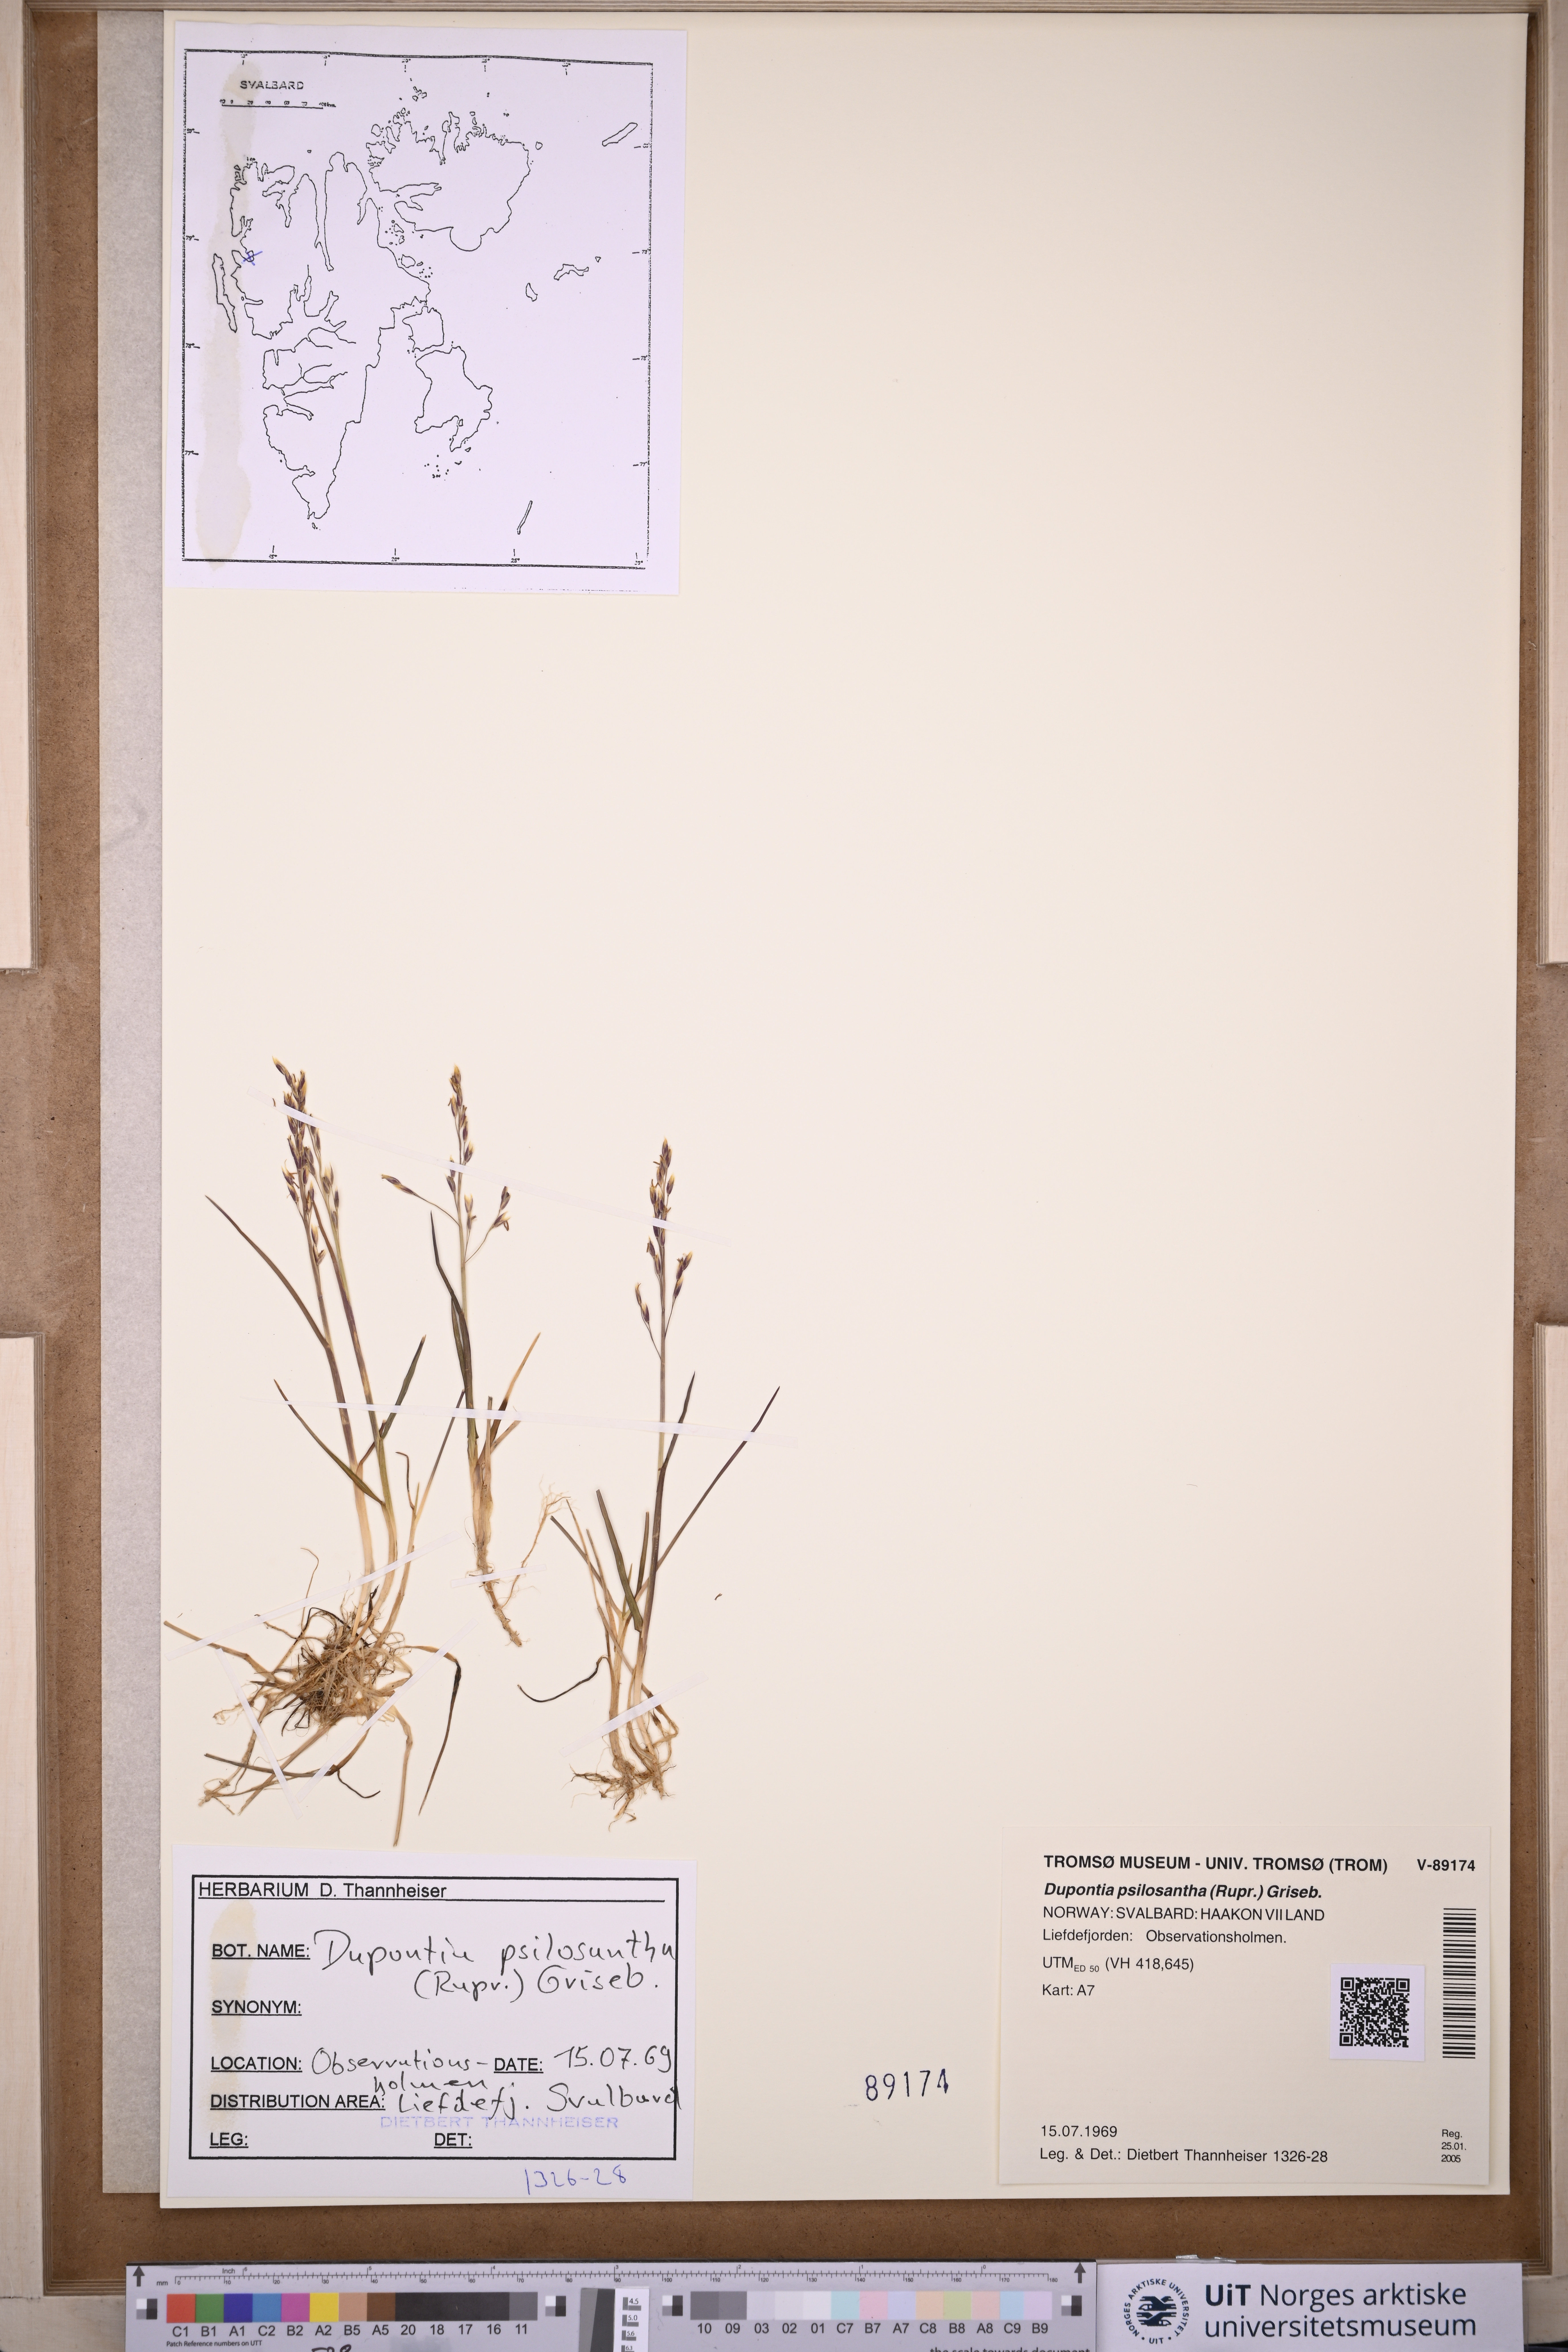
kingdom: Plantae
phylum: Tracheophyta
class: Liliopsida
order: Poales
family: Poaceae
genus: Dupontia
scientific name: Dupontia fisheri
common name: Tundra grass
